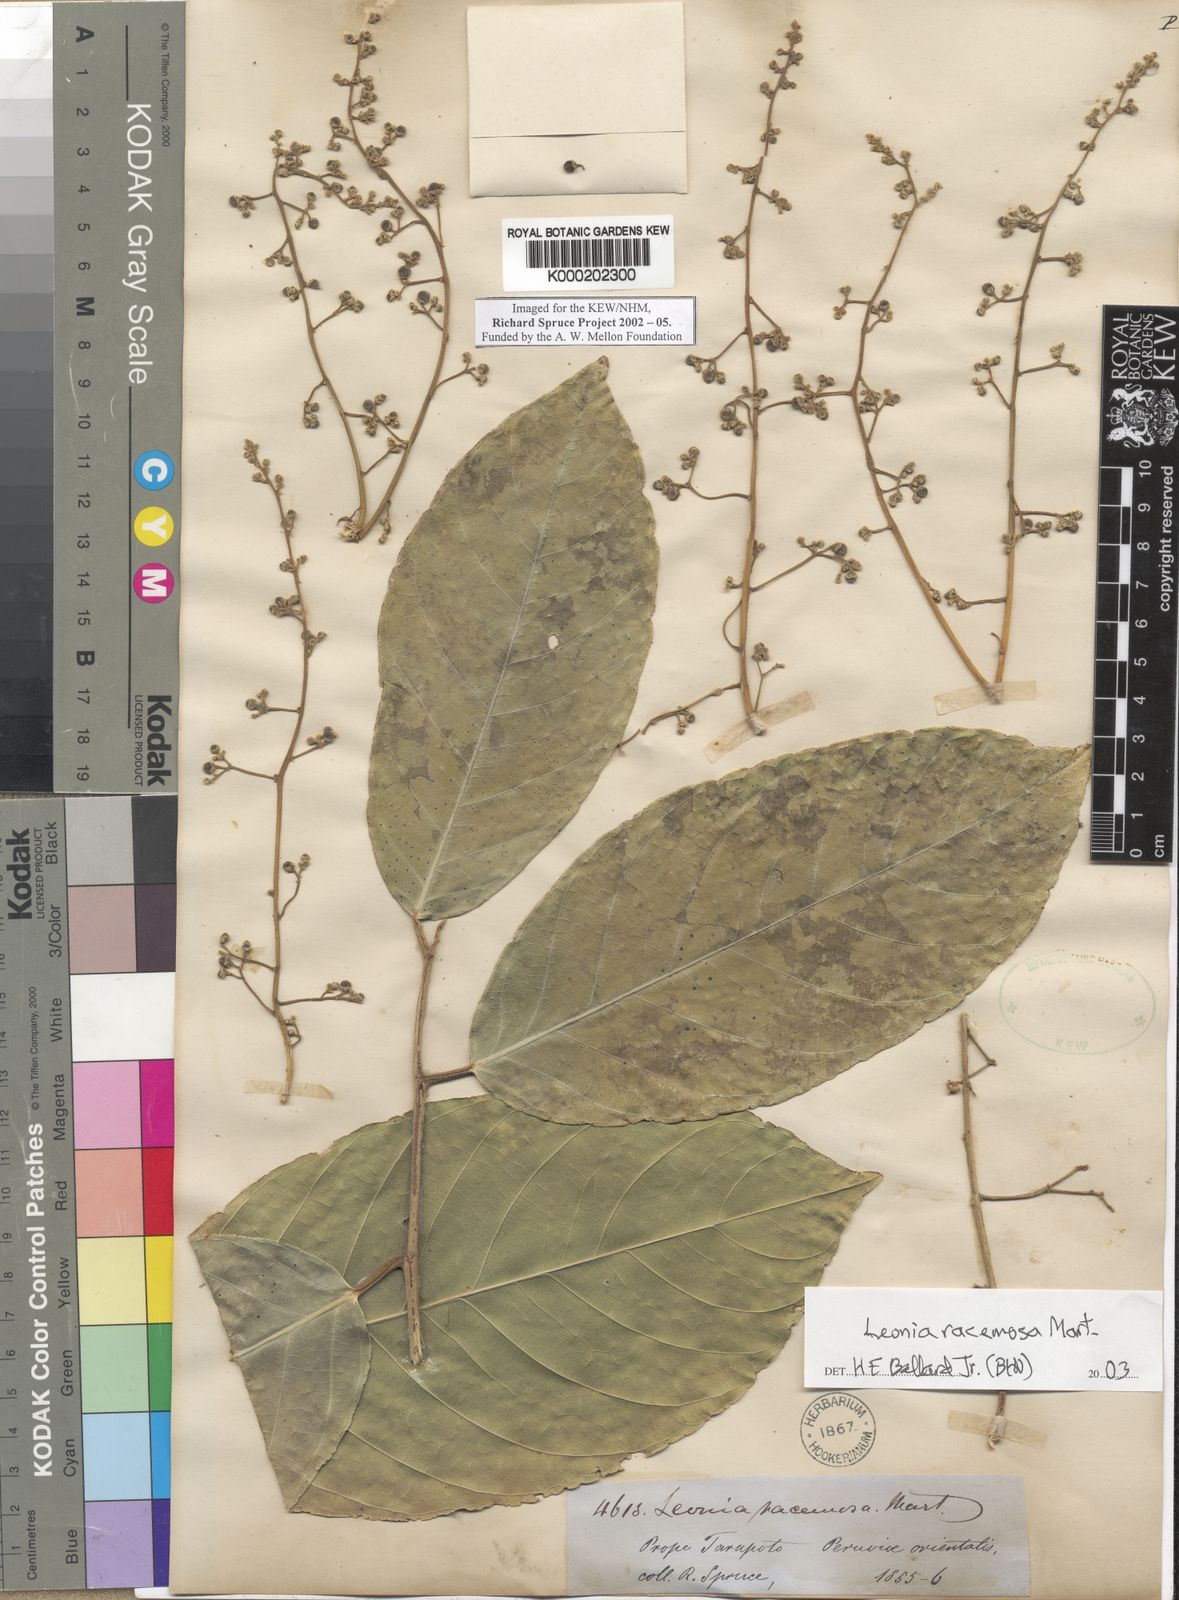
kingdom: Plantae
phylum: Tracheophyta
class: Magnoliopsida
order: Malpighiales
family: Violaceae
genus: Leonia
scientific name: Leonia glycycarpa
